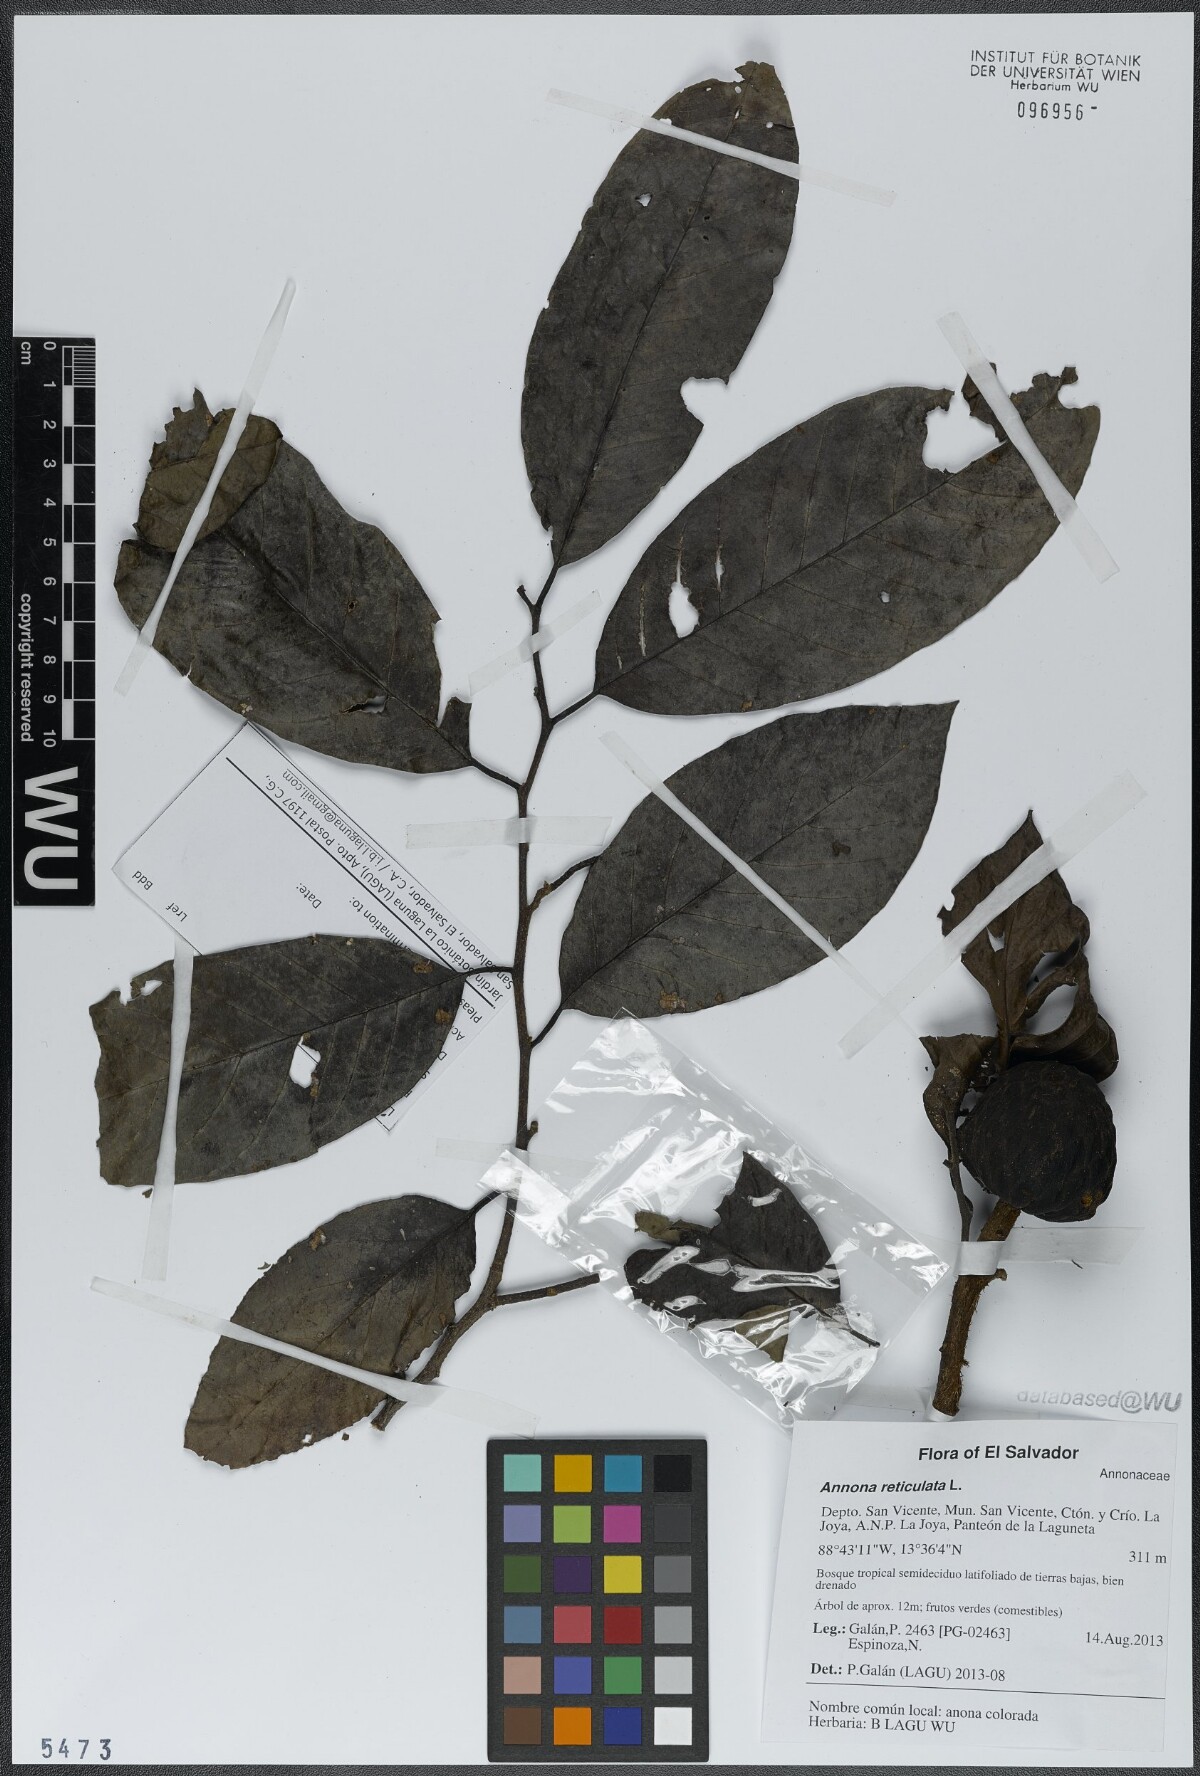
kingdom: Plantae
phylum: Tracheophyta
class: Magnoliopsida
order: Magnoliales
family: Annonaceae
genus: Annona
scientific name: Annona reticulata
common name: Custard apple
